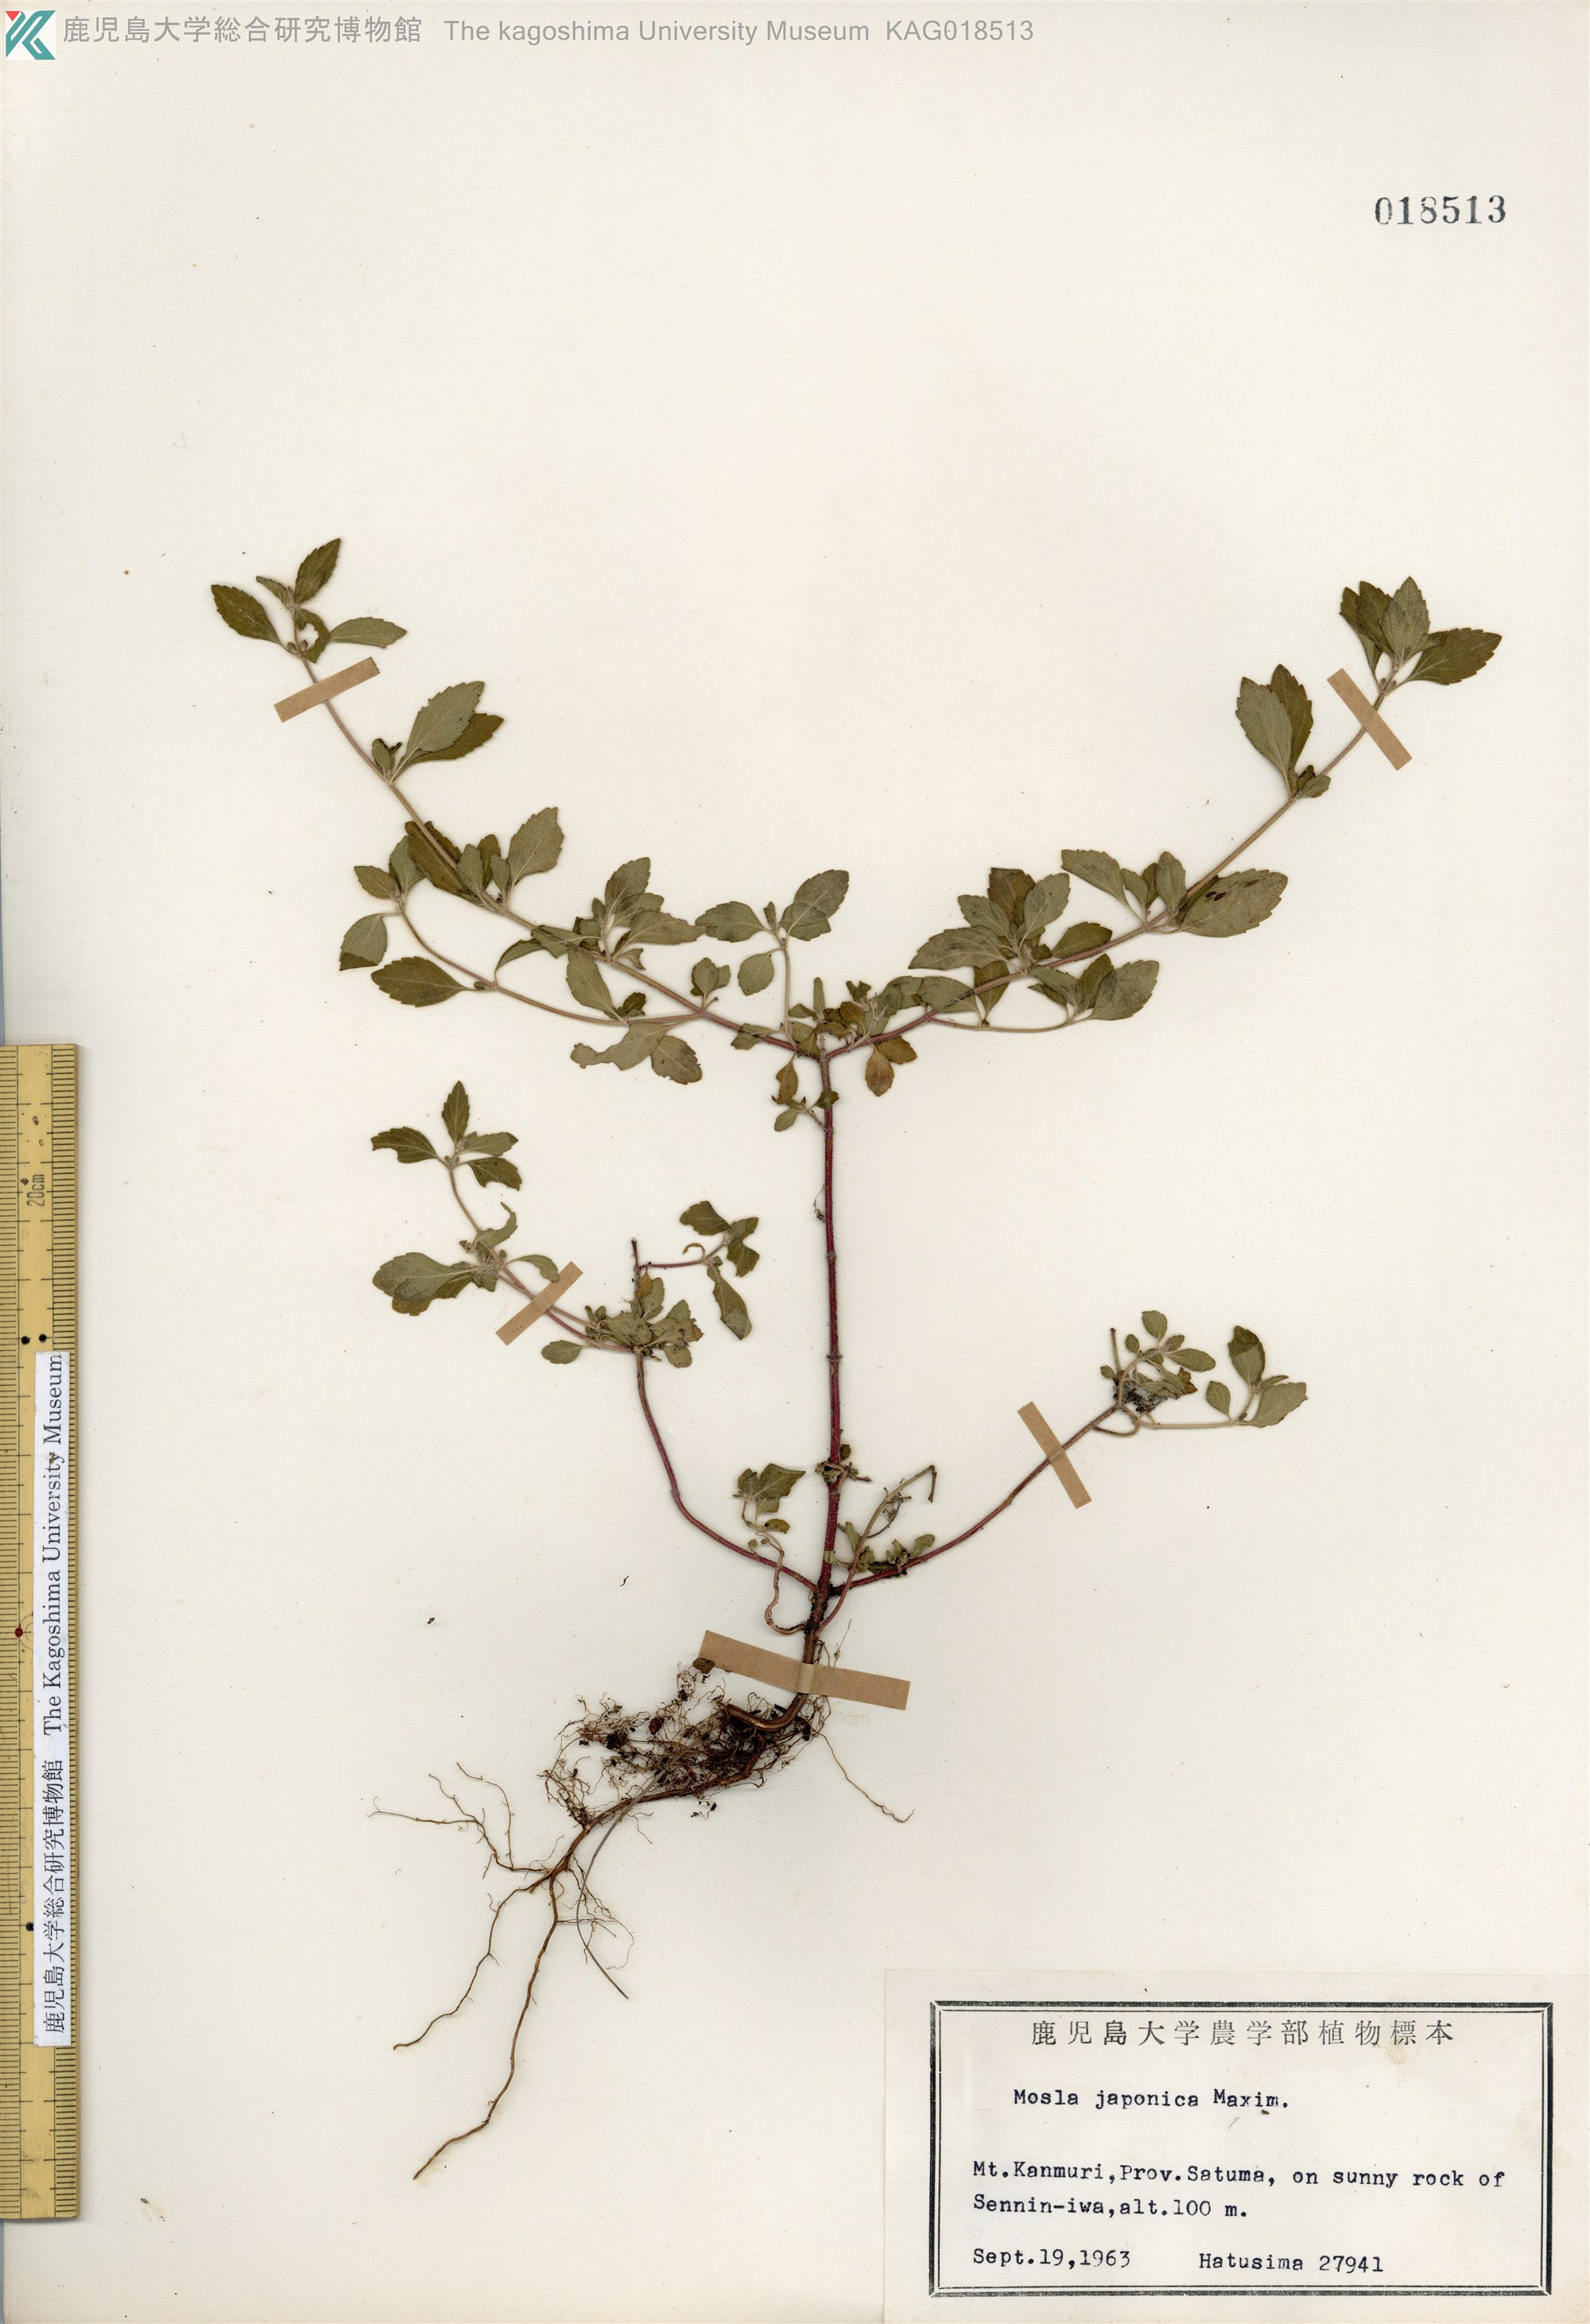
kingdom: Plantae
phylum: Tracheophyta
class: Magnoliopsida
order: Lamiales
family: Lamiaceae
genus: Mosla
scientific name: Mosla japonica
